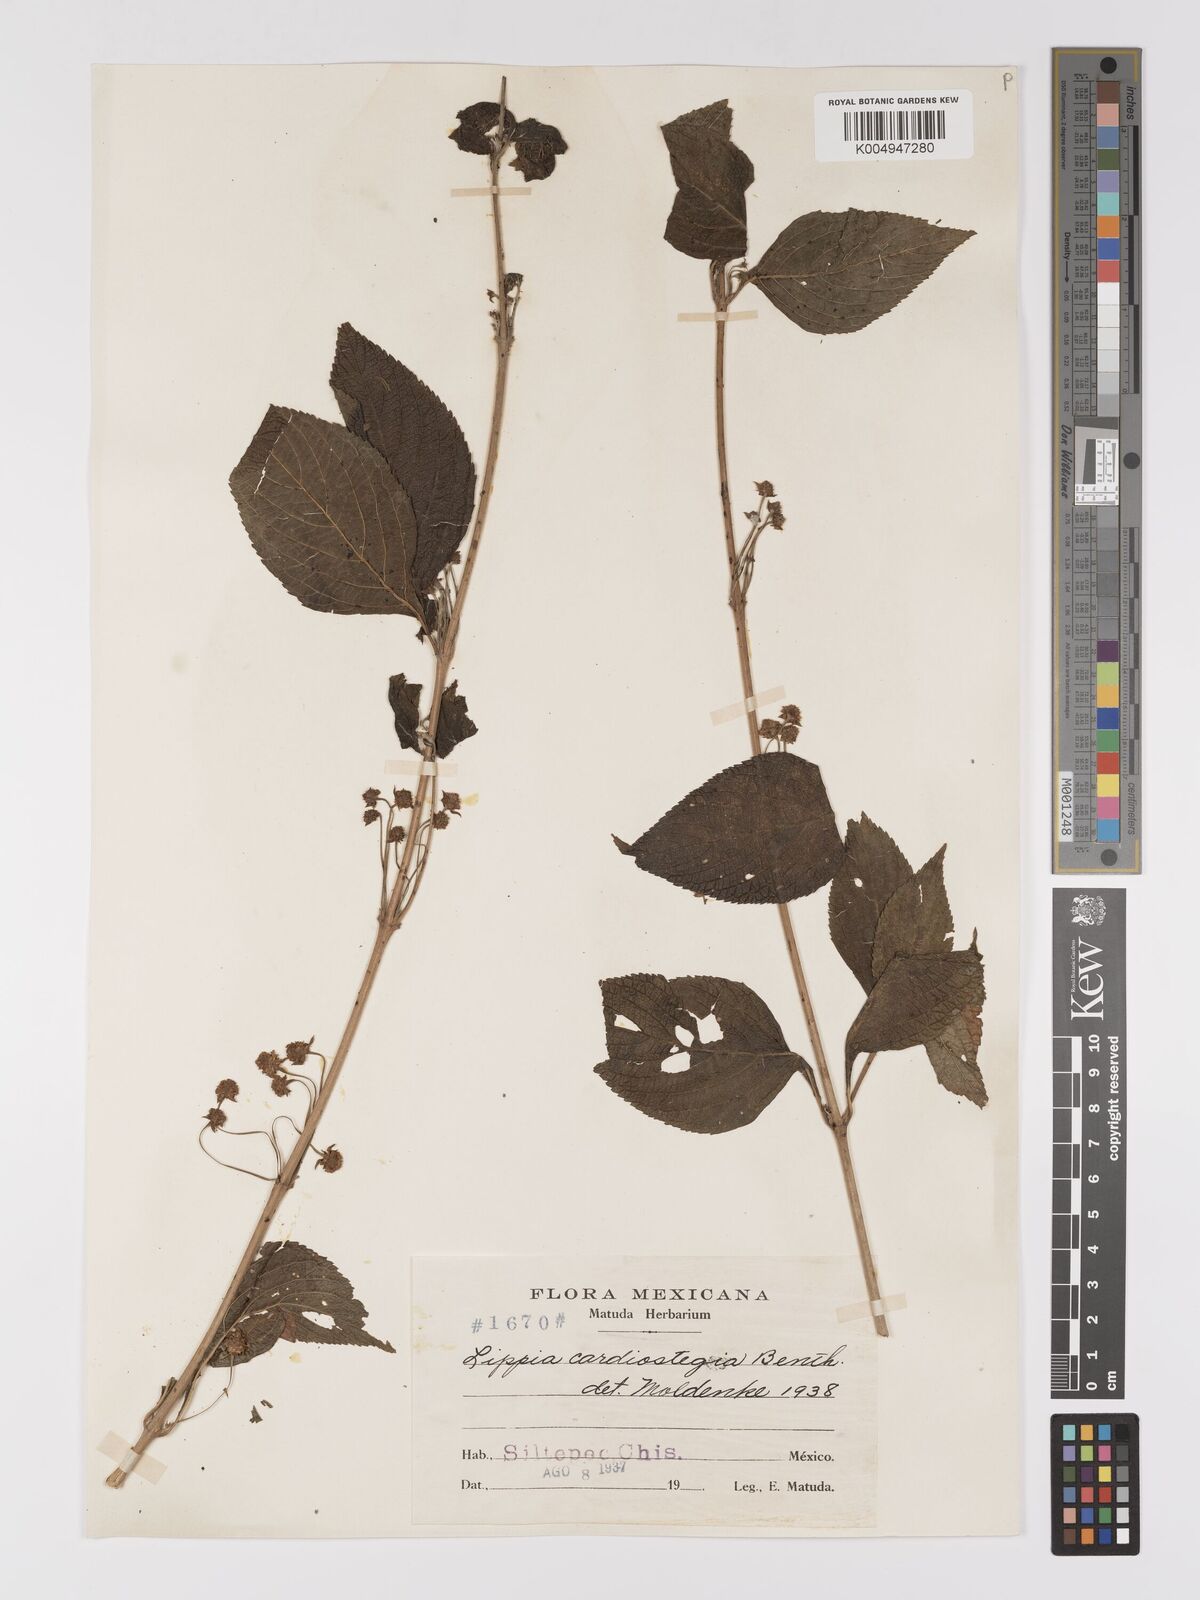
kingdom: Plantae
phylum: Tracheophyta
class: Magnoliopsida
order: Lamiales
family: Verbenaceae
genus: Lippia
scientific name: Lippia cardiostegia
